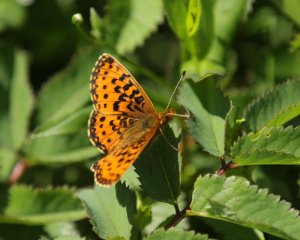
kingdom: Animalia
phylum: Arthropoda
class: Insecta
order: Lepidoptera
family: Nymphalidae
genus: Boloria
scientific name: Boloria selene
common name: Silver-bordered Fritillary
